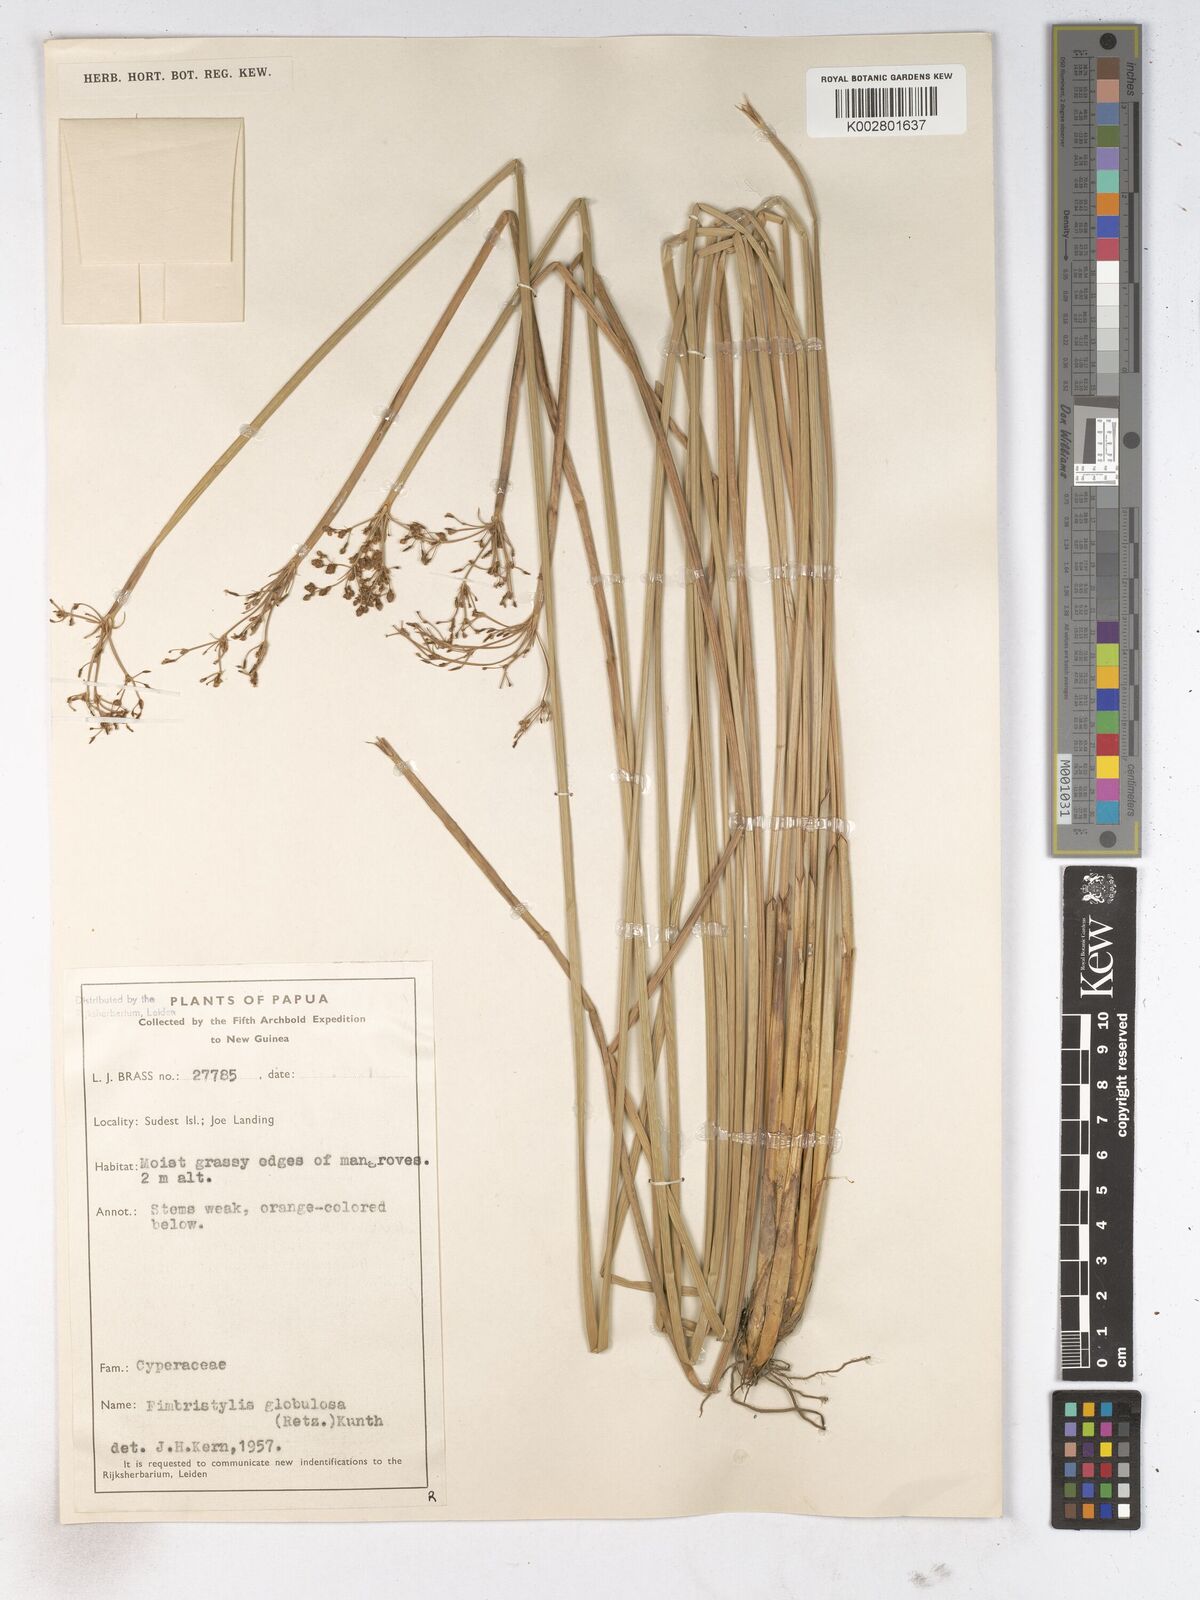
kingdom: Plantae
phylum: Tracheophyta
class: Liliopsida
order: Poales
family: Cyperaceae
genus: Fimbristylis
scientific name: Fimbristylis umbellaris
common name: Globular fimbristylis
